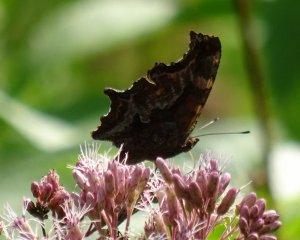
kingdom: Animalia
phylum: Arthropoda
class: Insecta
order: Lepidoptera
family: Nymphalidae
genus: Polygonia
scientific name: Polygonia comma
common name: Eastern Comma
